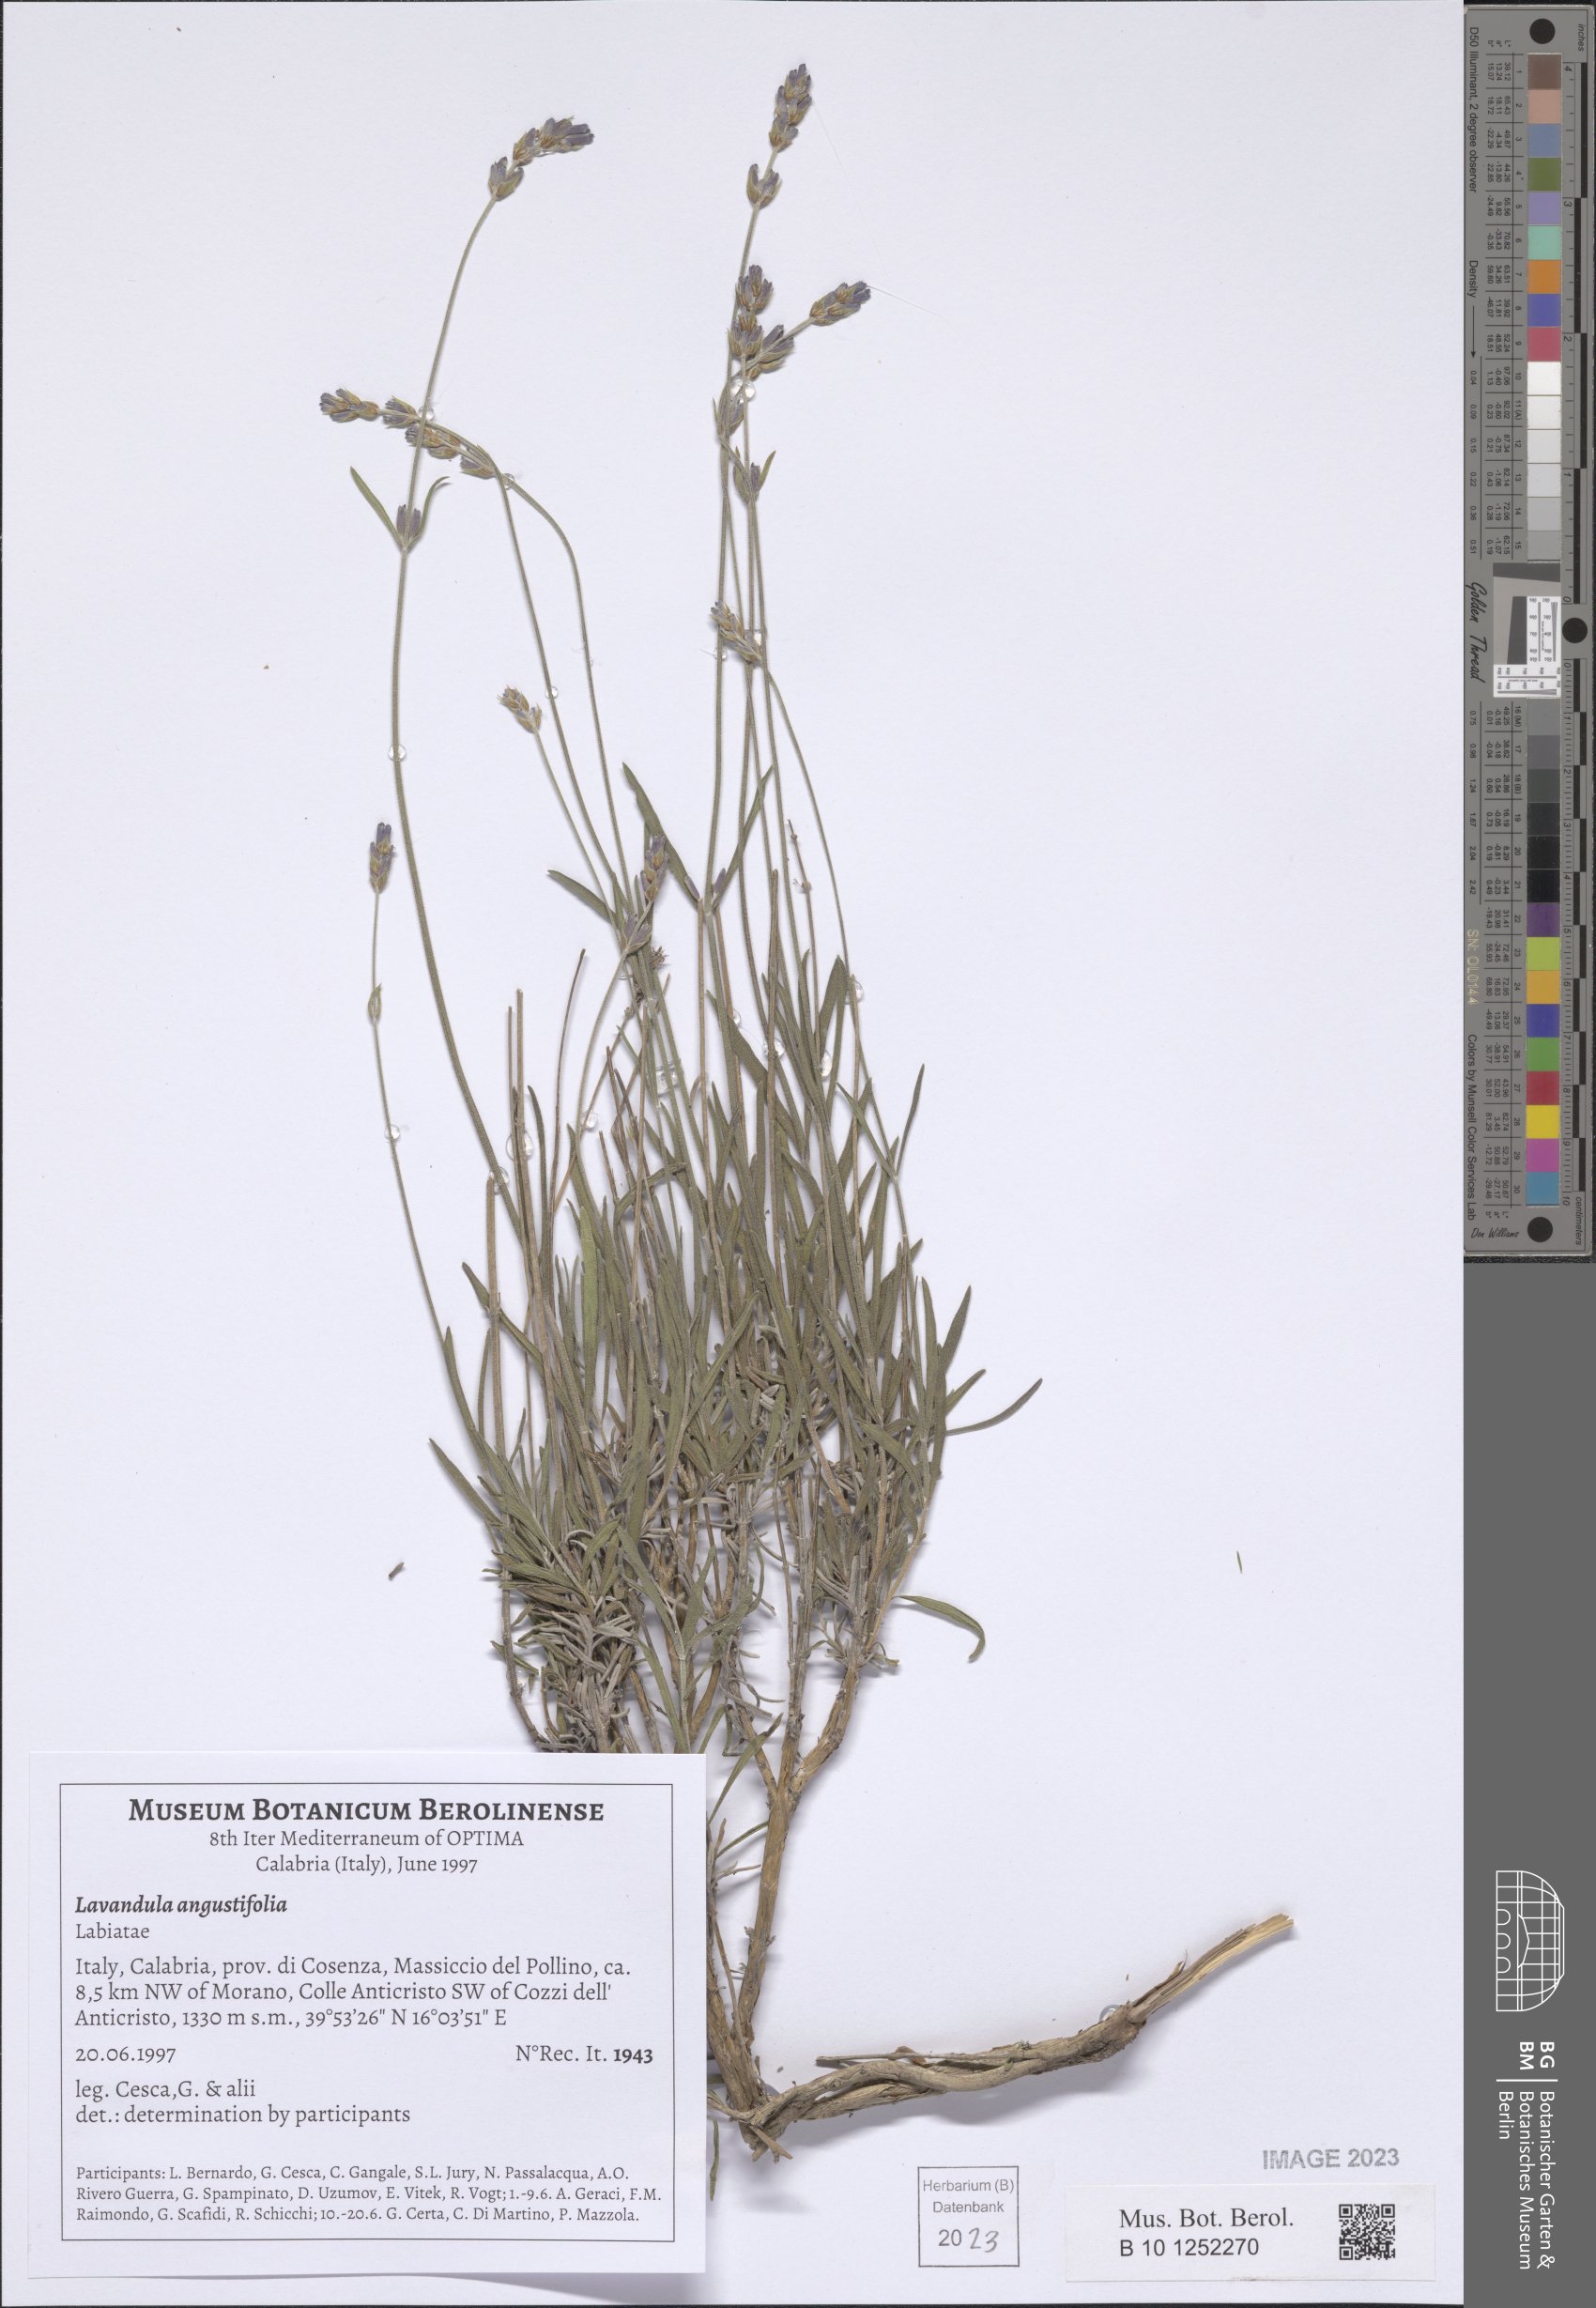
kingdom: Plantae
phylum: Tracheophyta
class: Magnoliopsida
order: Lamiales
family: Lamiaceae
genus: Lavandula
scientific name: Lavandula angustifolia
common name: Garden lavender
